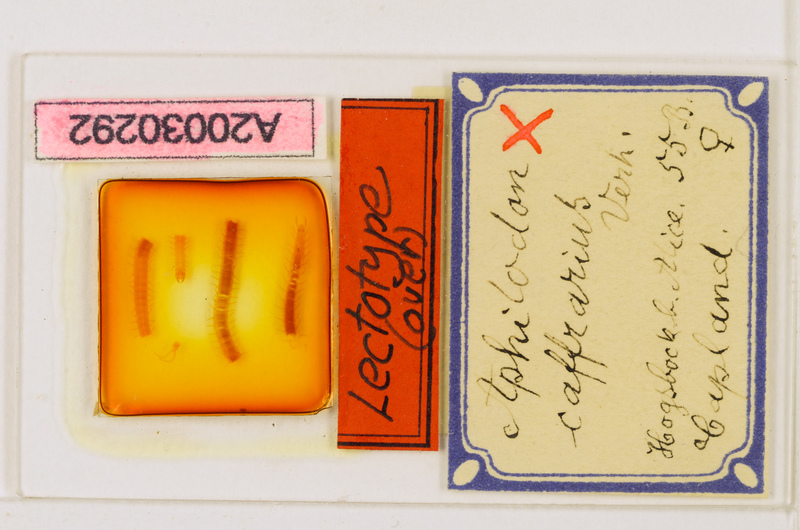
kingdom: Animalia
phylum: Arthropoda
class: Chilopoda
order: Geophilomorpha
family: Aphilodontidae
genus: Aphilodon
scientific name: Aphilodon caffrarius
